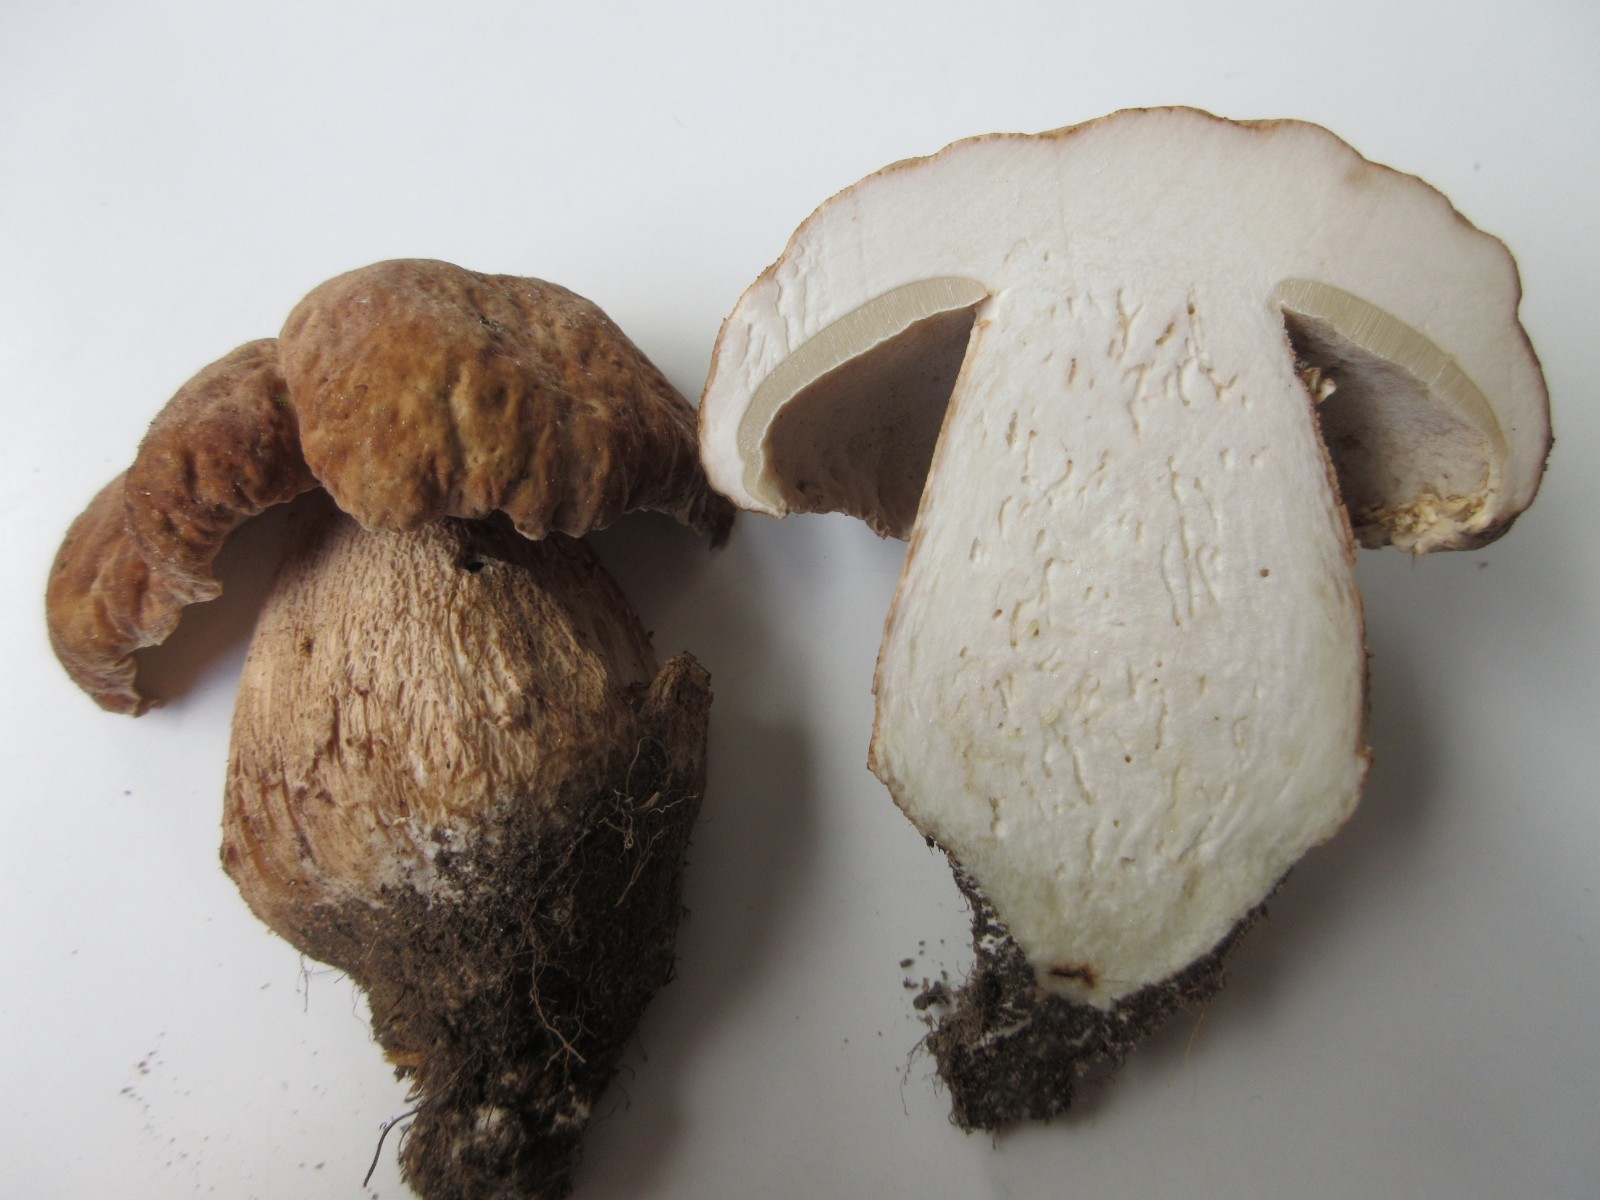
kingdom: Fungi
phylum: Basidiomycota
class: Agaricomycetes
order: Boletales
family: Boletaceae
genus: Boletus
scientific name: Boletus reticulatus
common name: sommer-rørhat
